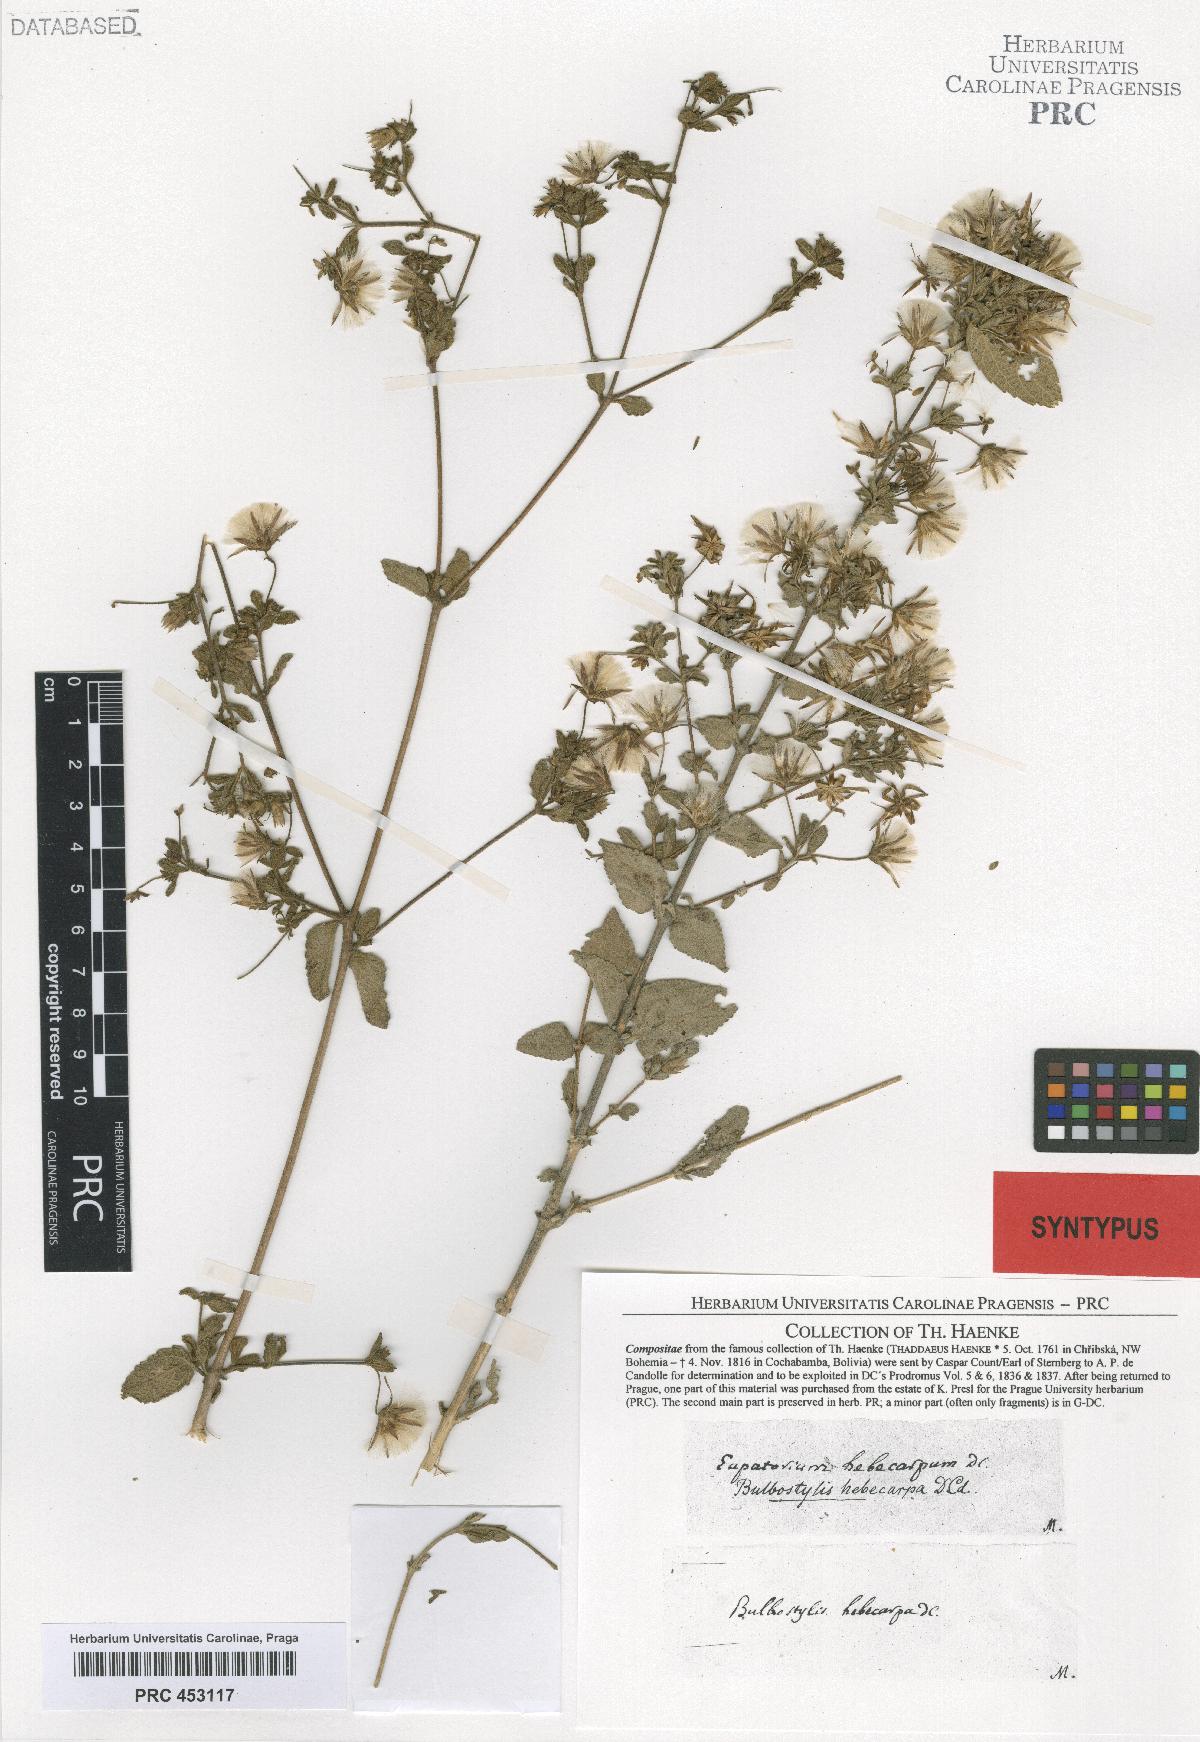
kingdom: Plantae
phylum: Tracheophyta
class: Magnoliopsida
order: Asterales
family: Asteraceae
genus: Brickellia
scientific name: Brickellia paniculata
